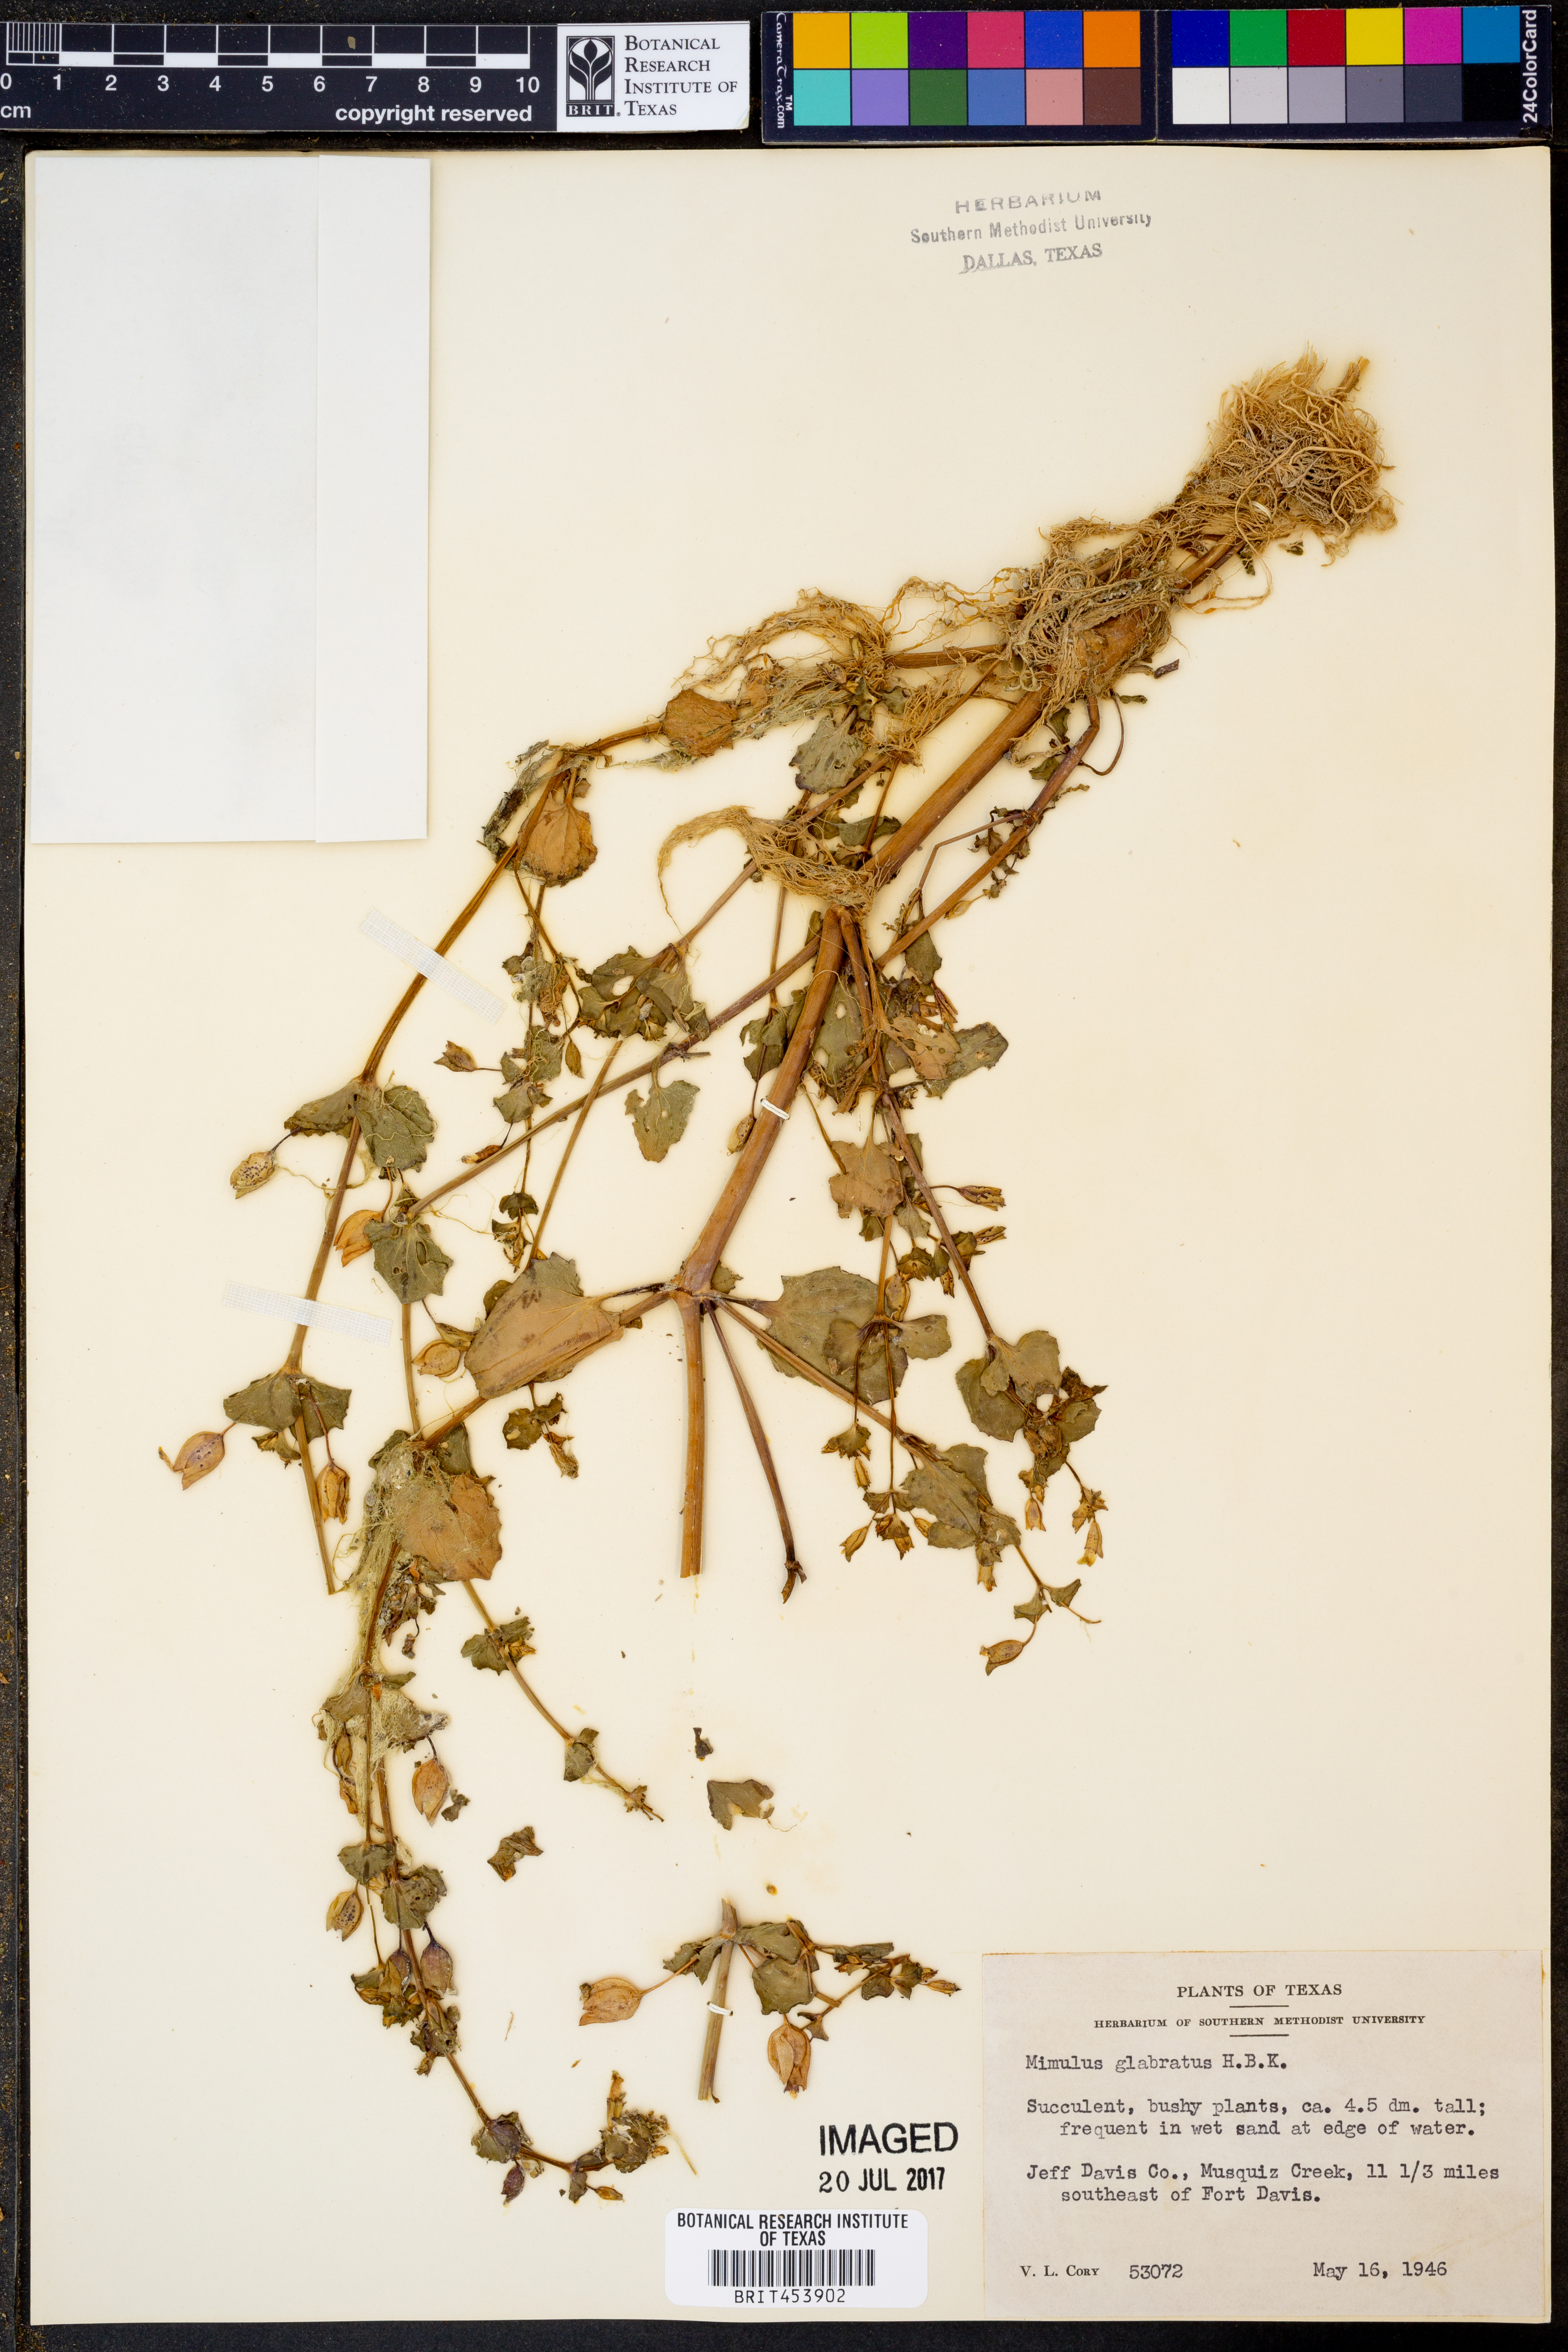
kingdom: Plantae
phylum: Tracheophyta
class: Magnoliopsida
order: Lamiales
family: Phrymaceae
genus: Erythranthe
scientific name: Erythranthe glabrata
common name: Round-leaved monkeyflower
